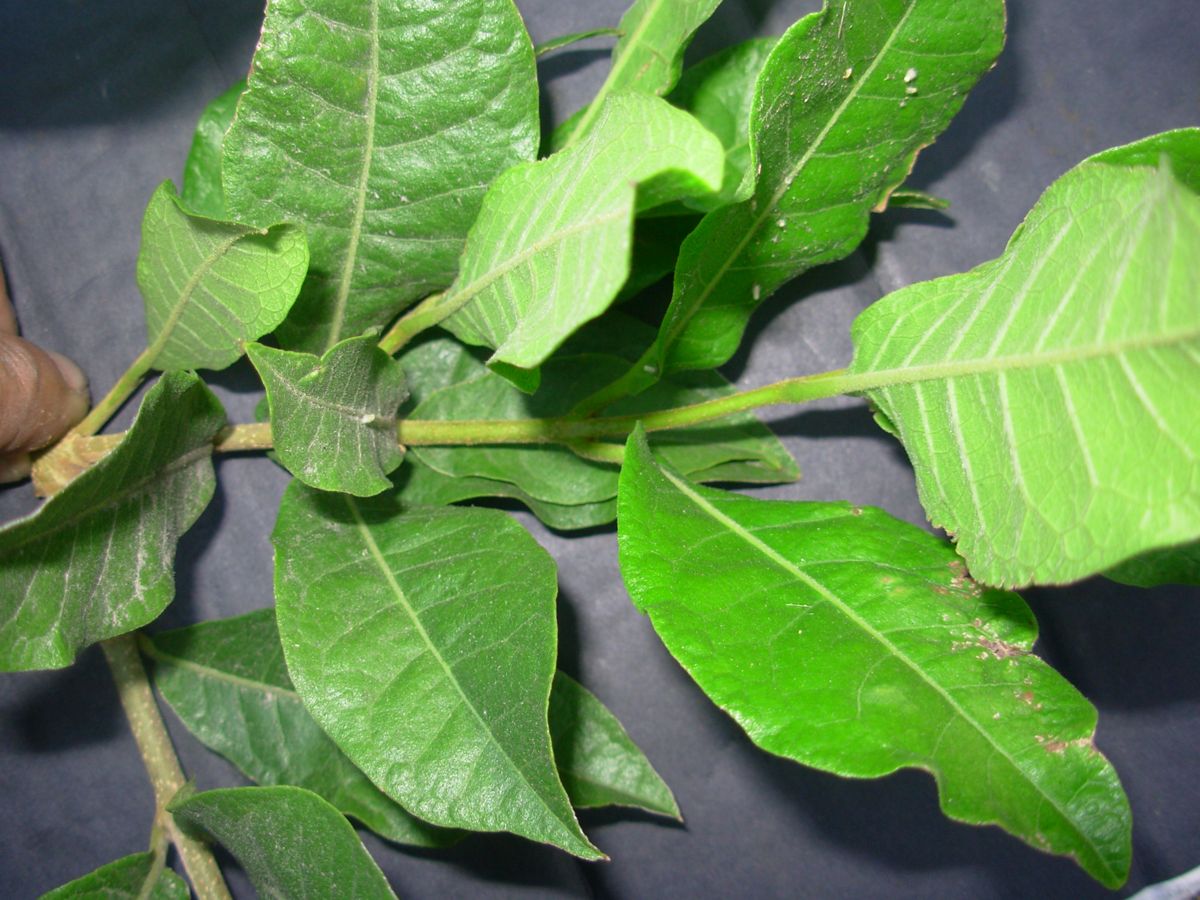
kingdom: Plantae
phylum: Tracheophyta
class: Magnoliopsida
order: Lamiales
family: Verbenaceae
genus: Petrea
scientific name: Petrea volubilis
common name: Queen's-wreath
